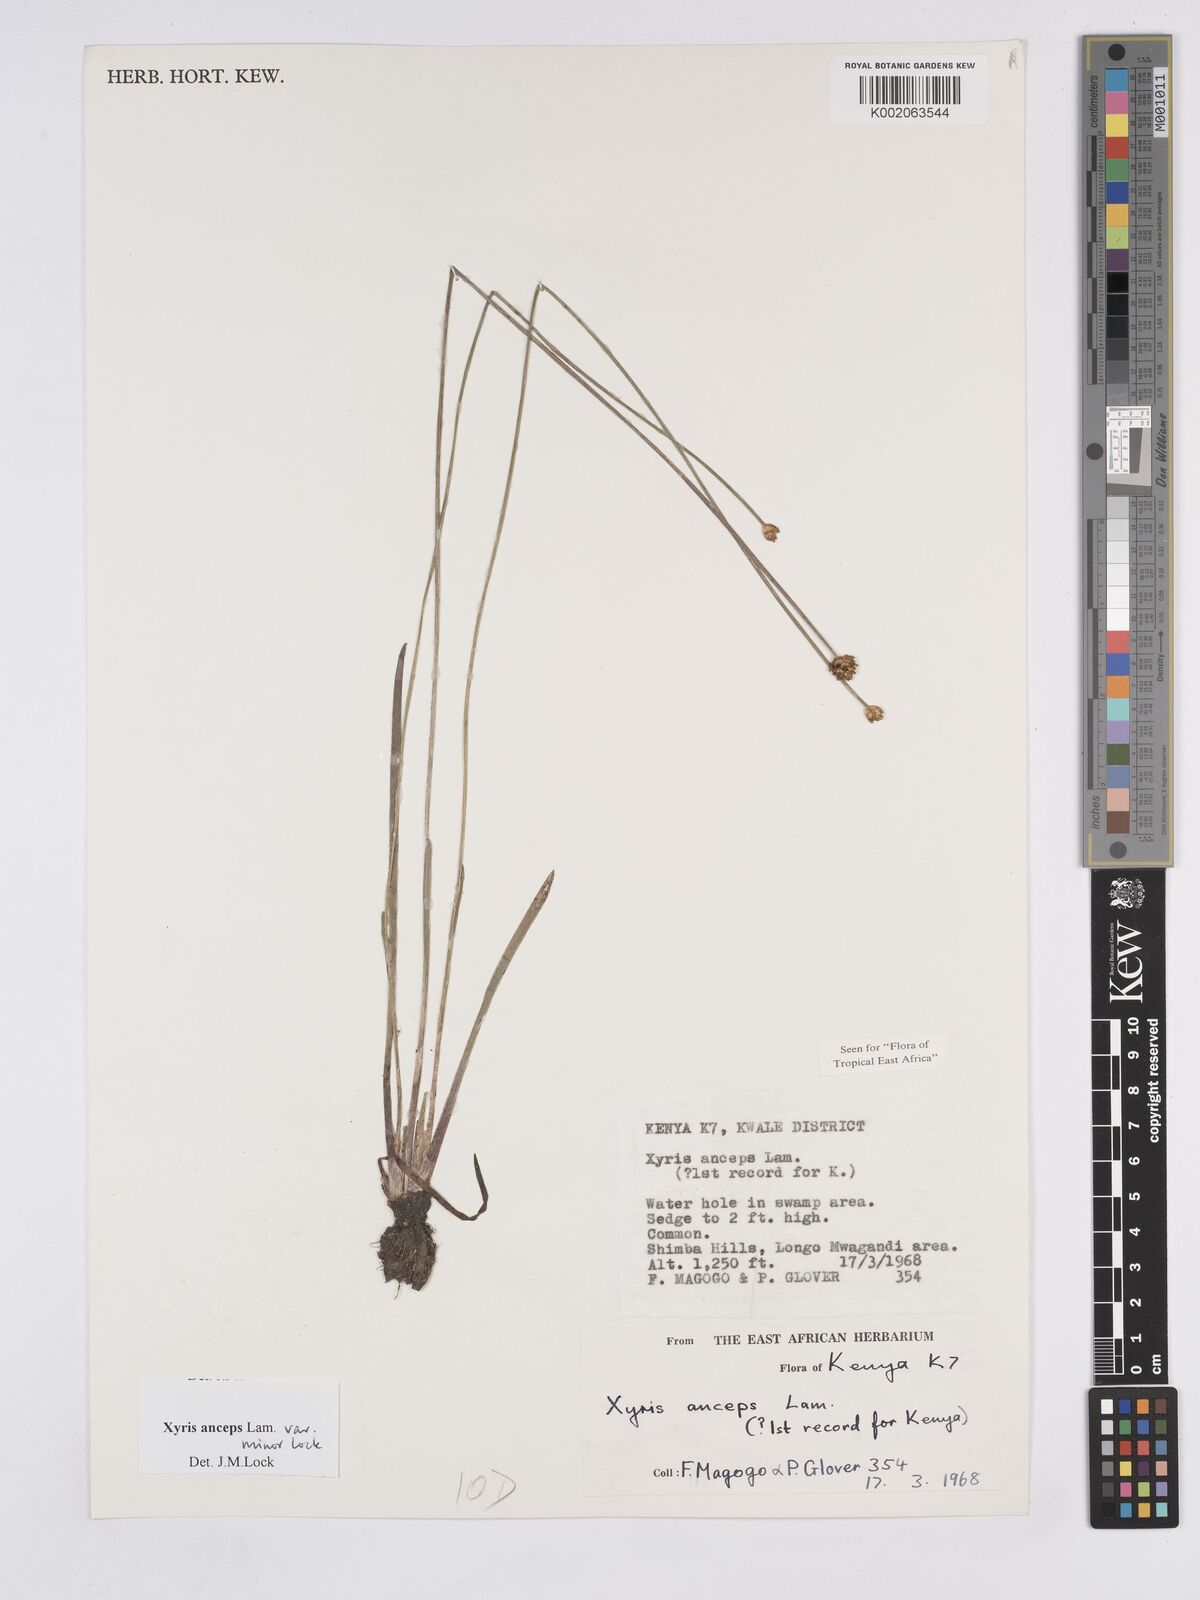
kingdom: Plantae
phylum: Tracheophyta
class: Liliopsida
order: Poales
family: Xyridaceae
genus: Xyris
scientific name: Xyris anceps
